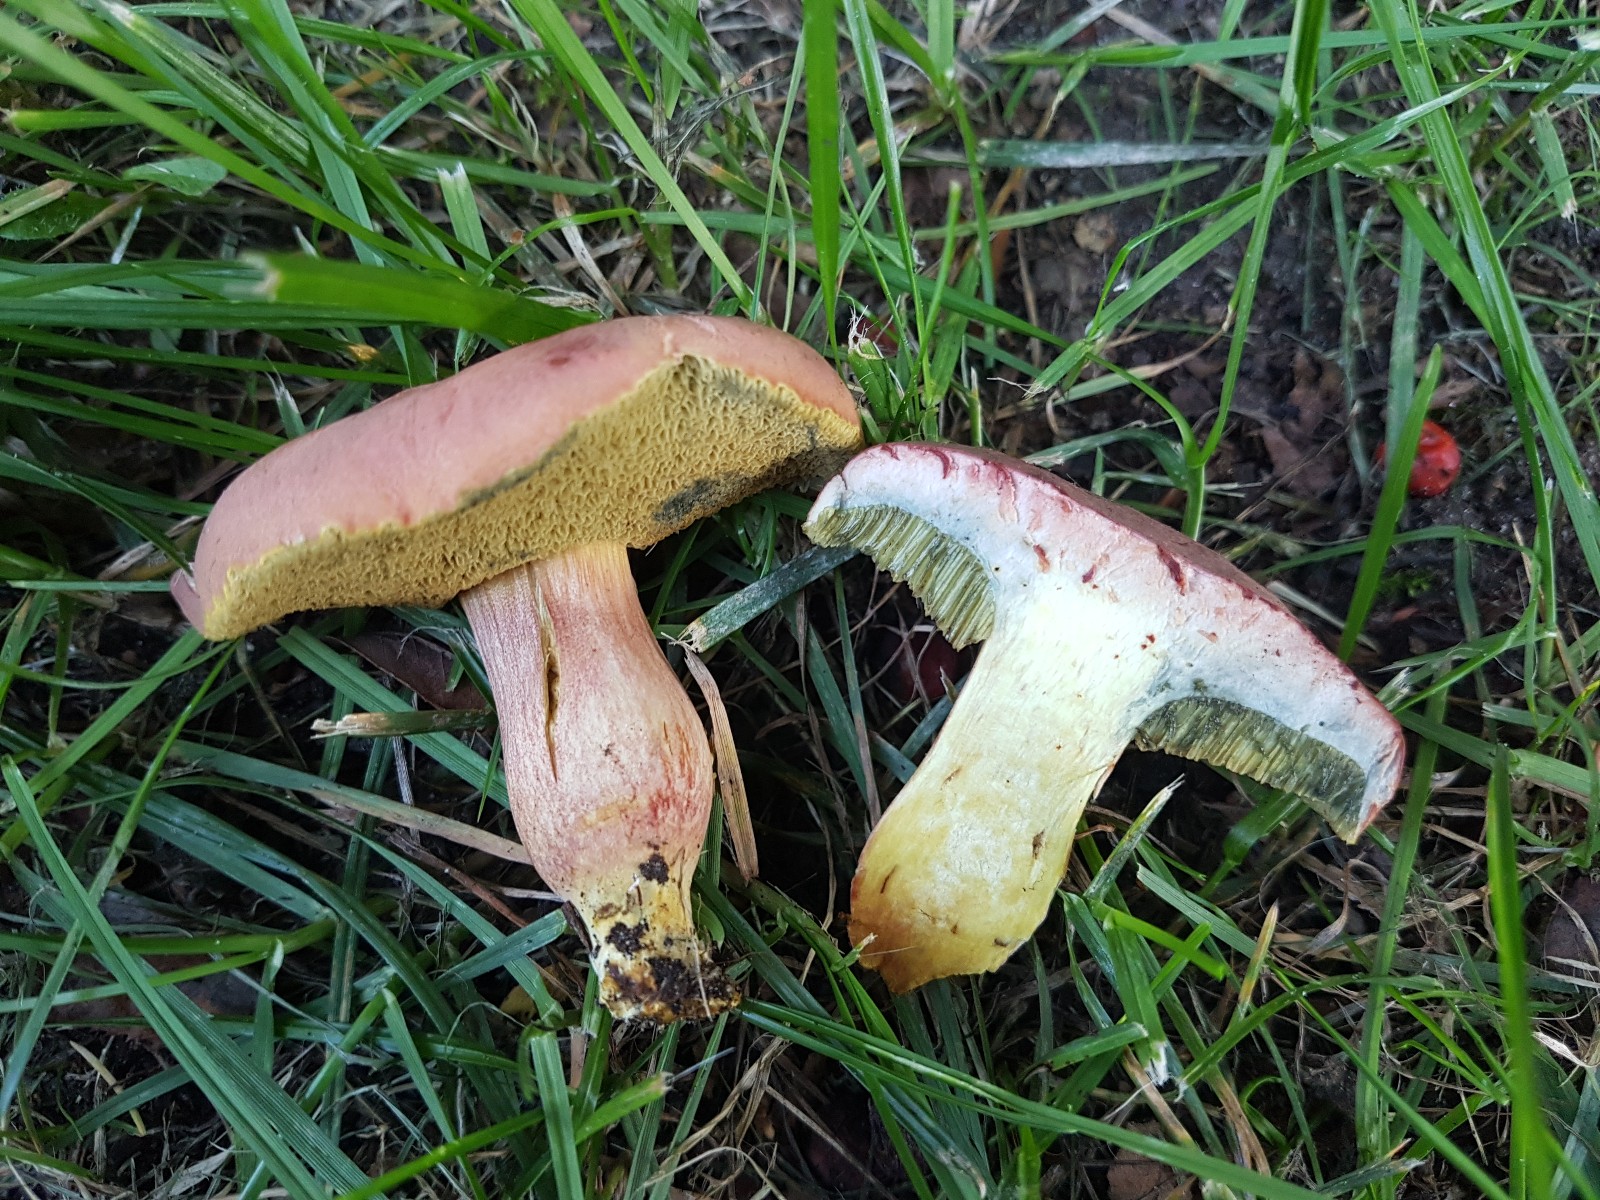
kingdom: Fungi
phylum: Basidiomycota
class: Agaricomycetes
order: Boletales
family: Boletaceae
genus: Hortiboletus
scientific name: Hortiboletus bubalinus
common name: aurora-rørhat
